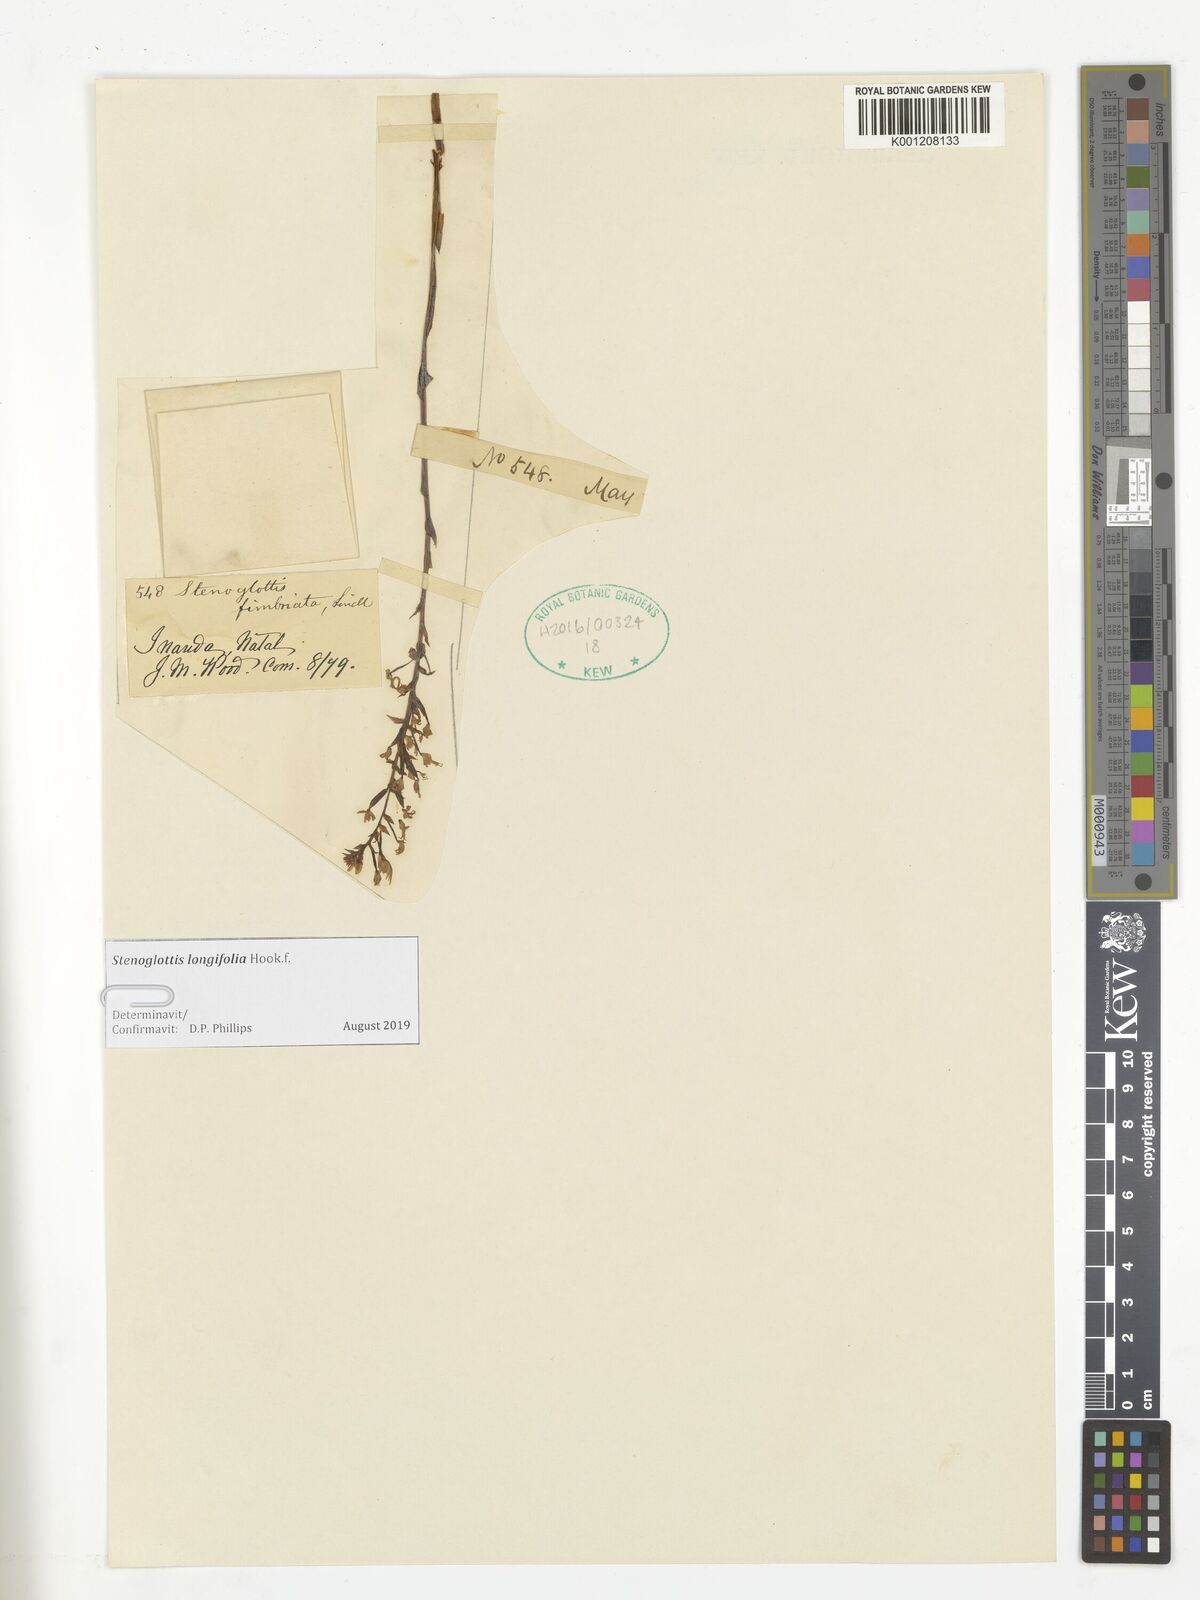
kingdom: Plantae
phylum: Tracheophyta
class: Liliopsida
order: Asparagales
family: Orchidaceae
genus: Stenoglottis
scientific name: Stenoglottis longifolia
